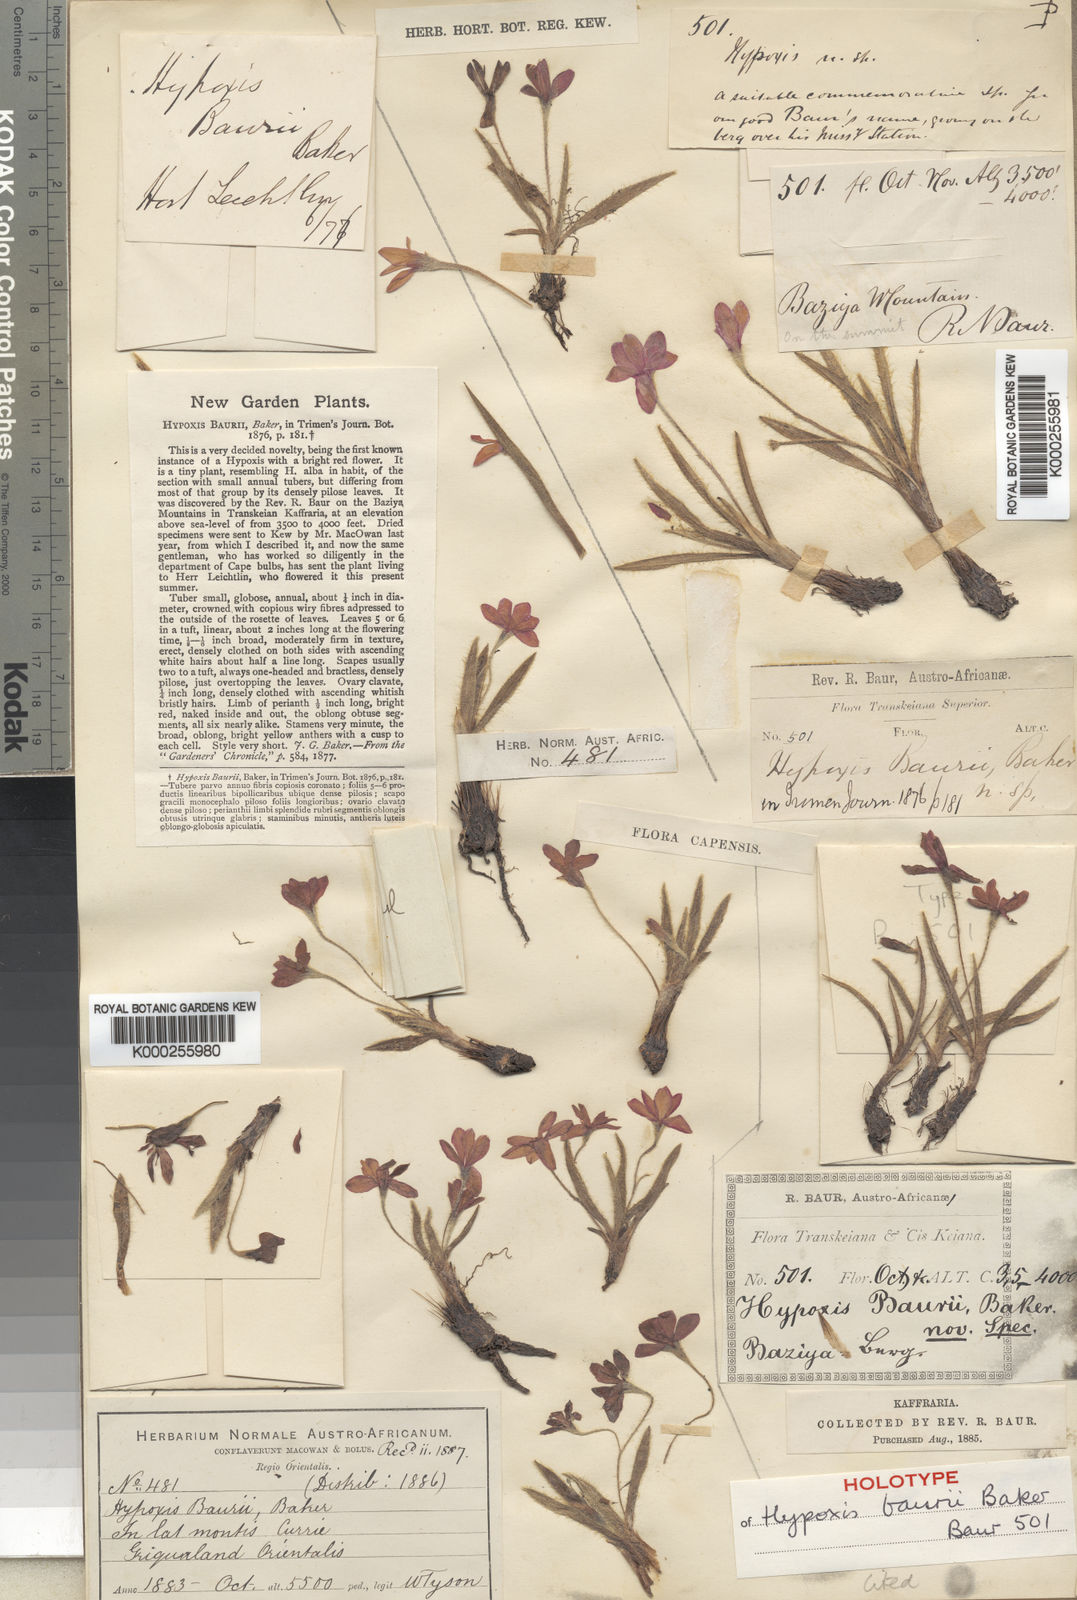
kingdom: Plantae
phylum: Tracheophyta
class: Liliopsida
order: Asparagales
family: Hypoxidaceae
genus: Hypoxis
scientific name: Hypoxis baurii
